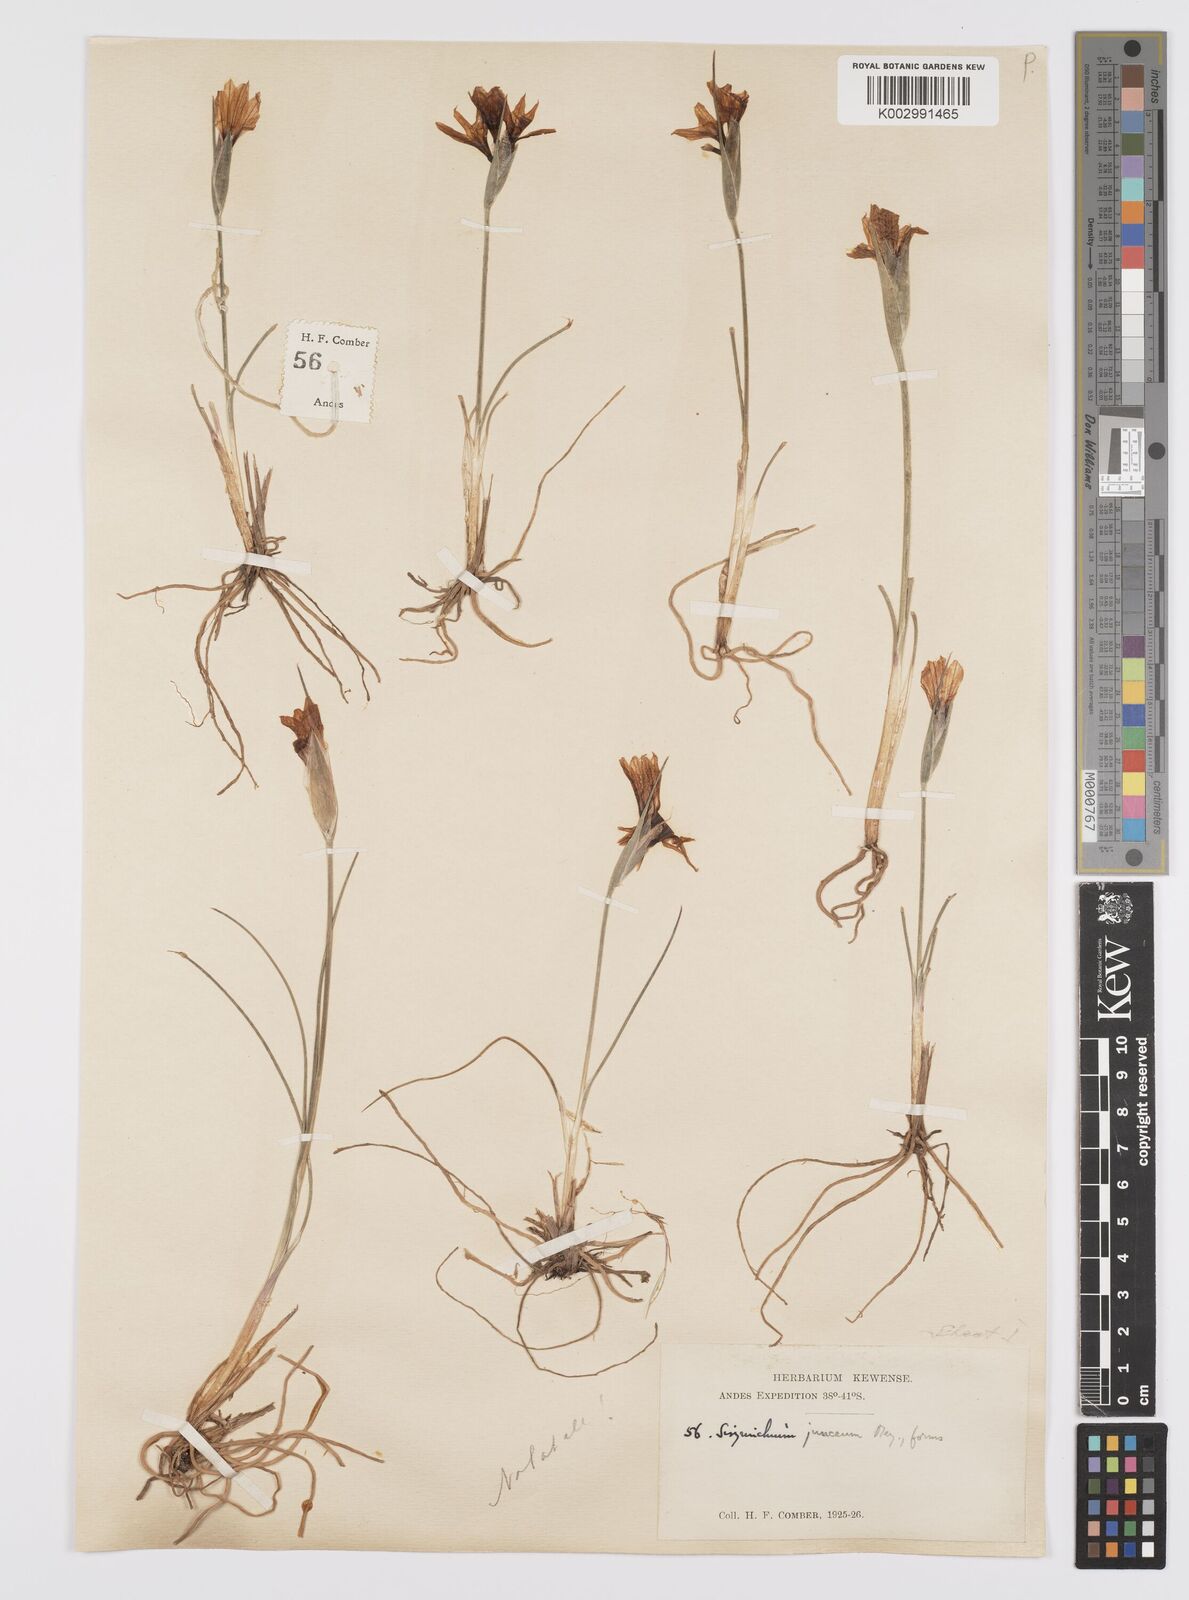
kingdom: Plantae
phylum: Tracheophyta
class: Liliopsida
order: Asparagales
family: Iridaceae
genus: Olsynium
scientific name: Olsynium junceum
